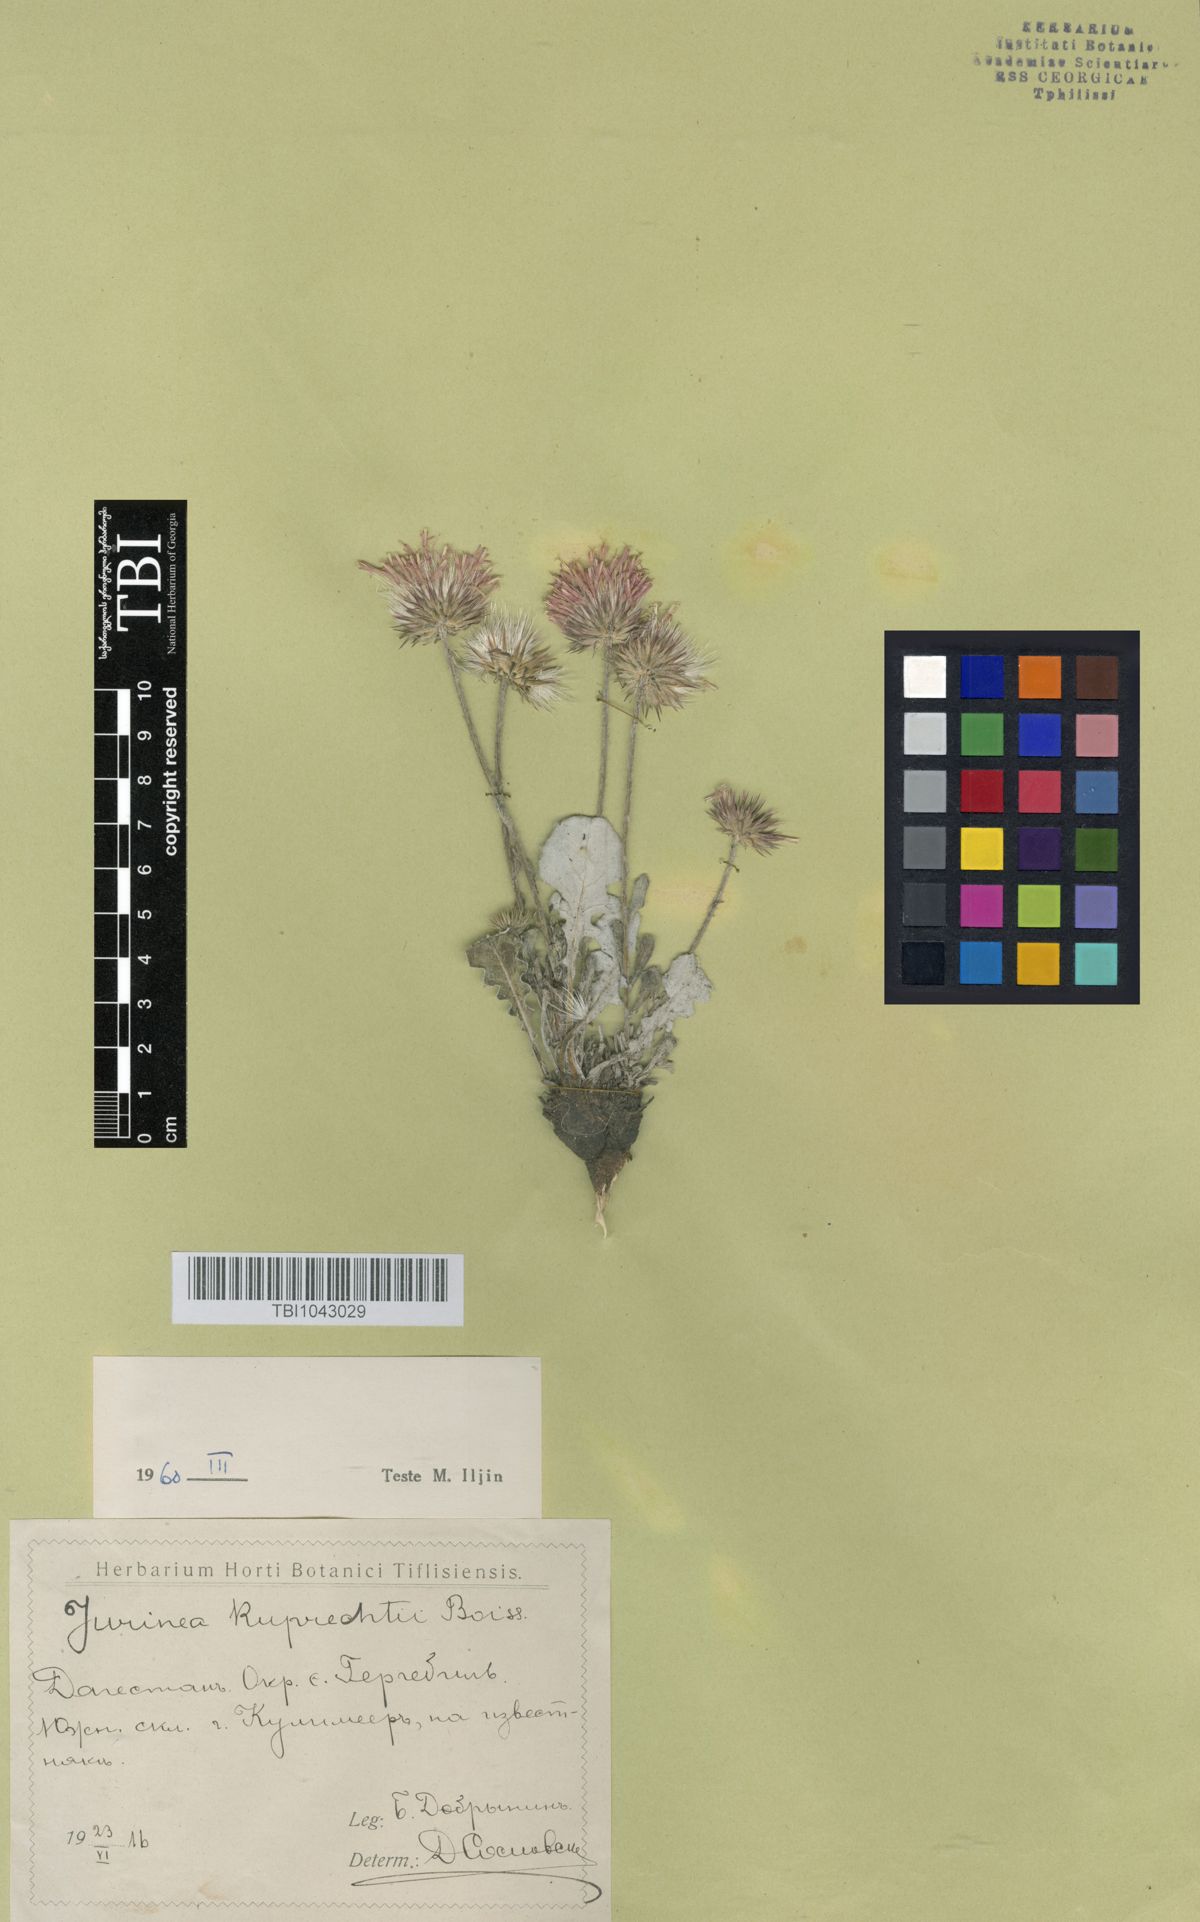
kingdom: Plantae
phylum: Tracheophyta
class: Magnoliopsida
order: Asterales
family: Asteraceae
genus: Jurinea
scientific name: Jurinea ruprechtii
